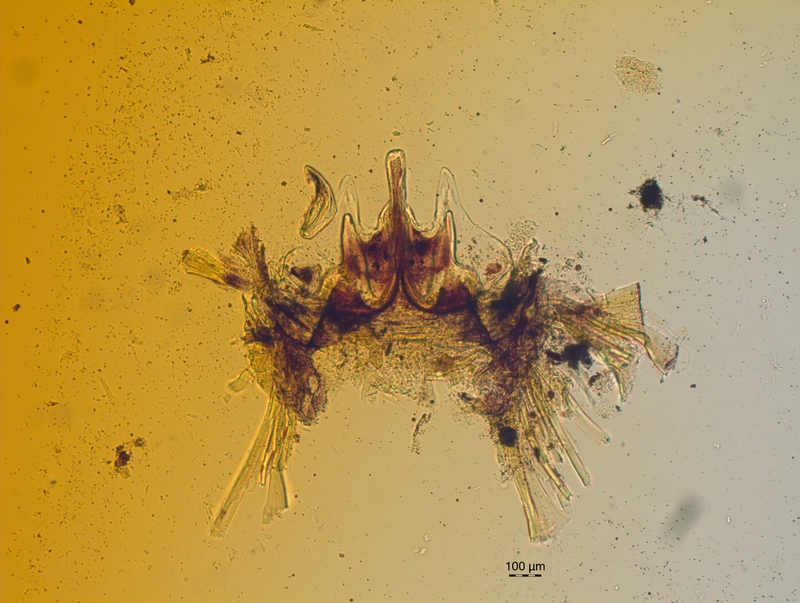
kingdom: Animalia
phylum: Arthropoda
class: Diplopoda
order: Chordeumatida
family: Craspedosomatidae
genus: Craspedosoma
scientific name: Craspedosoma brentanum
